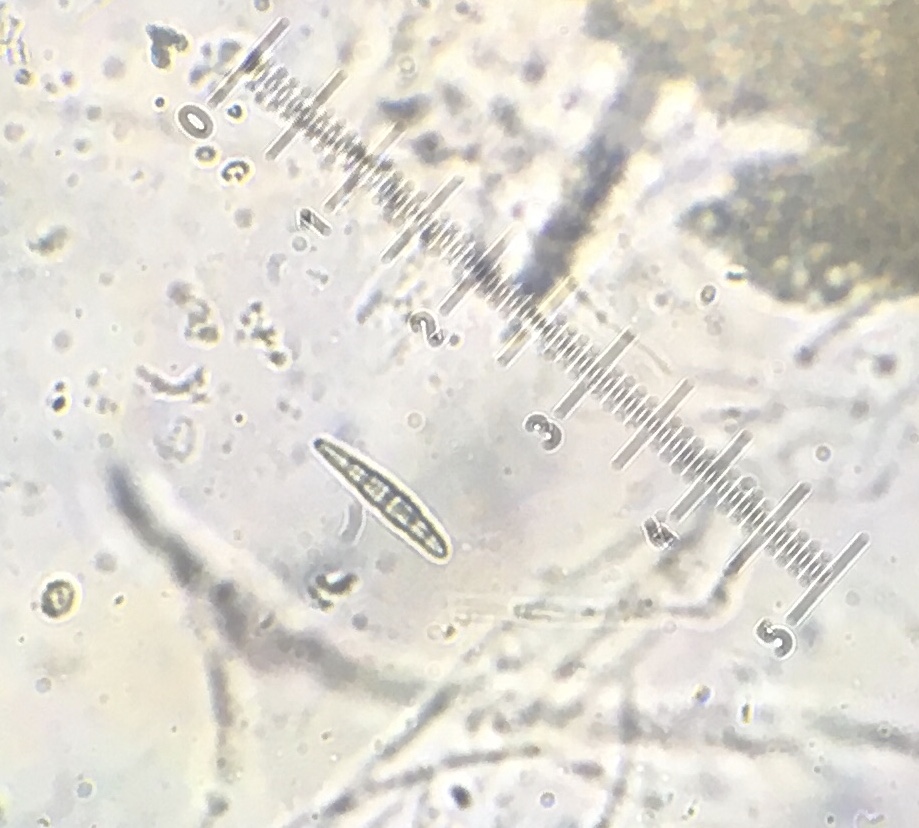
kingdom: Fungi
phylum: Ascomycota
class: Dothideomycetes
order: Pleosporales
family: Leptosphaeriaceae
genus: Leptosphaeria
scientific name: Leptosphaeria acuta
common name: spids kulkegle
